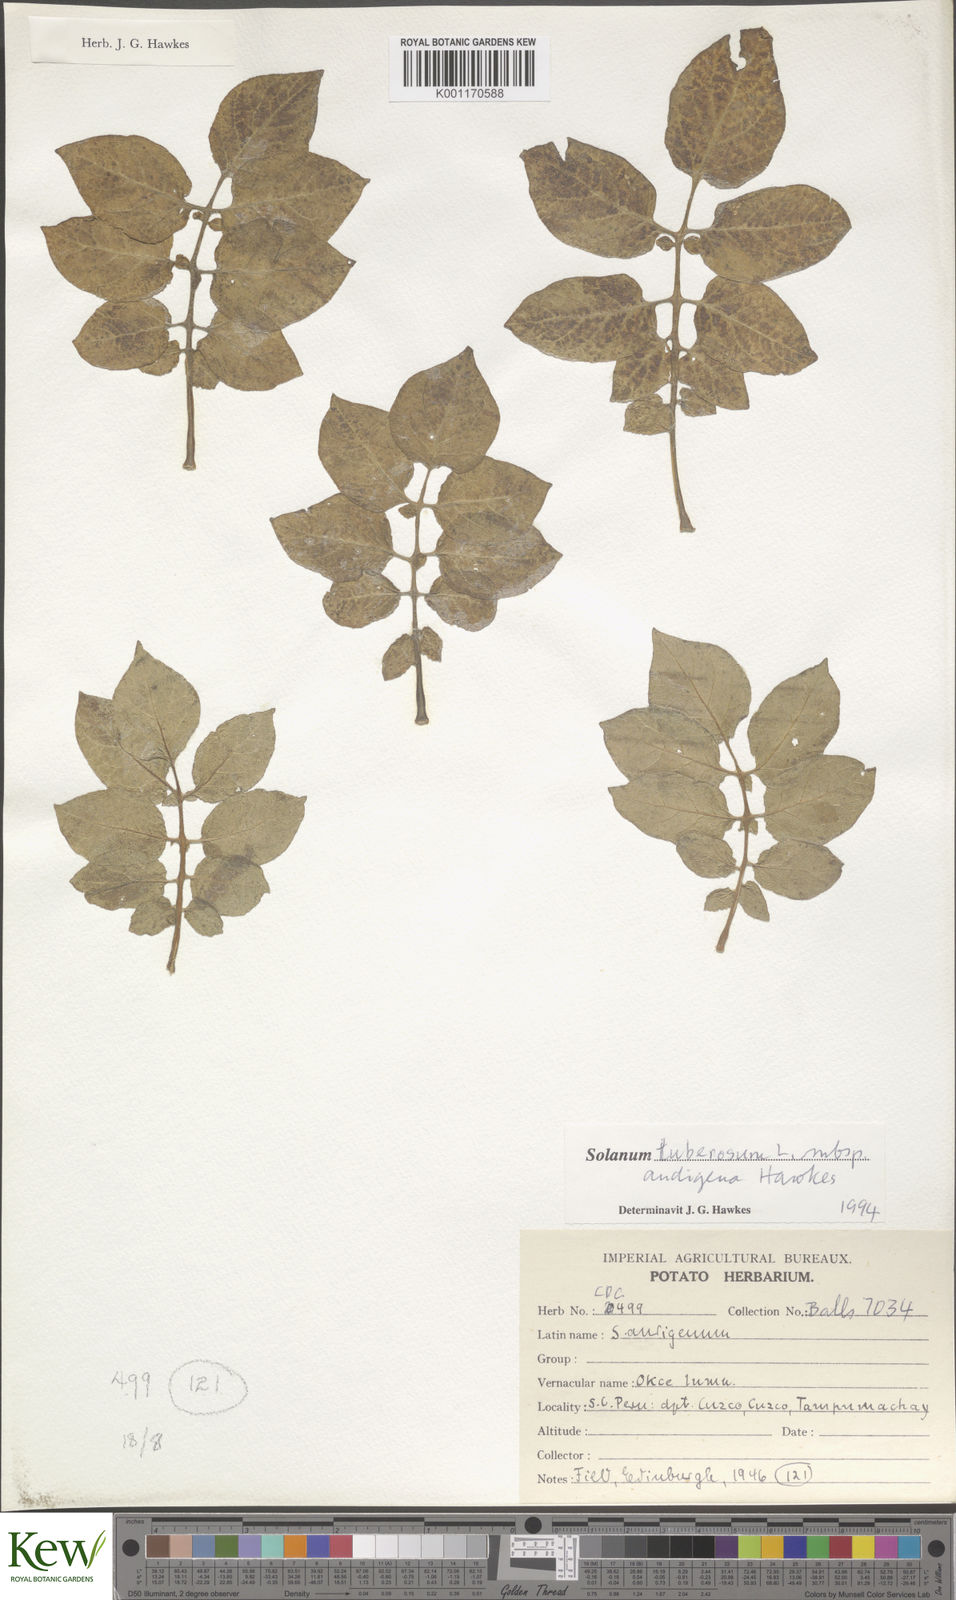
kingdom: Plantae
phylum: Tracheophyta
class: Magnoliopsida
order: Solanales
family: Solanaceae
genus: Solanum
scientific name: Solanum tuberosum
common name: Potato
